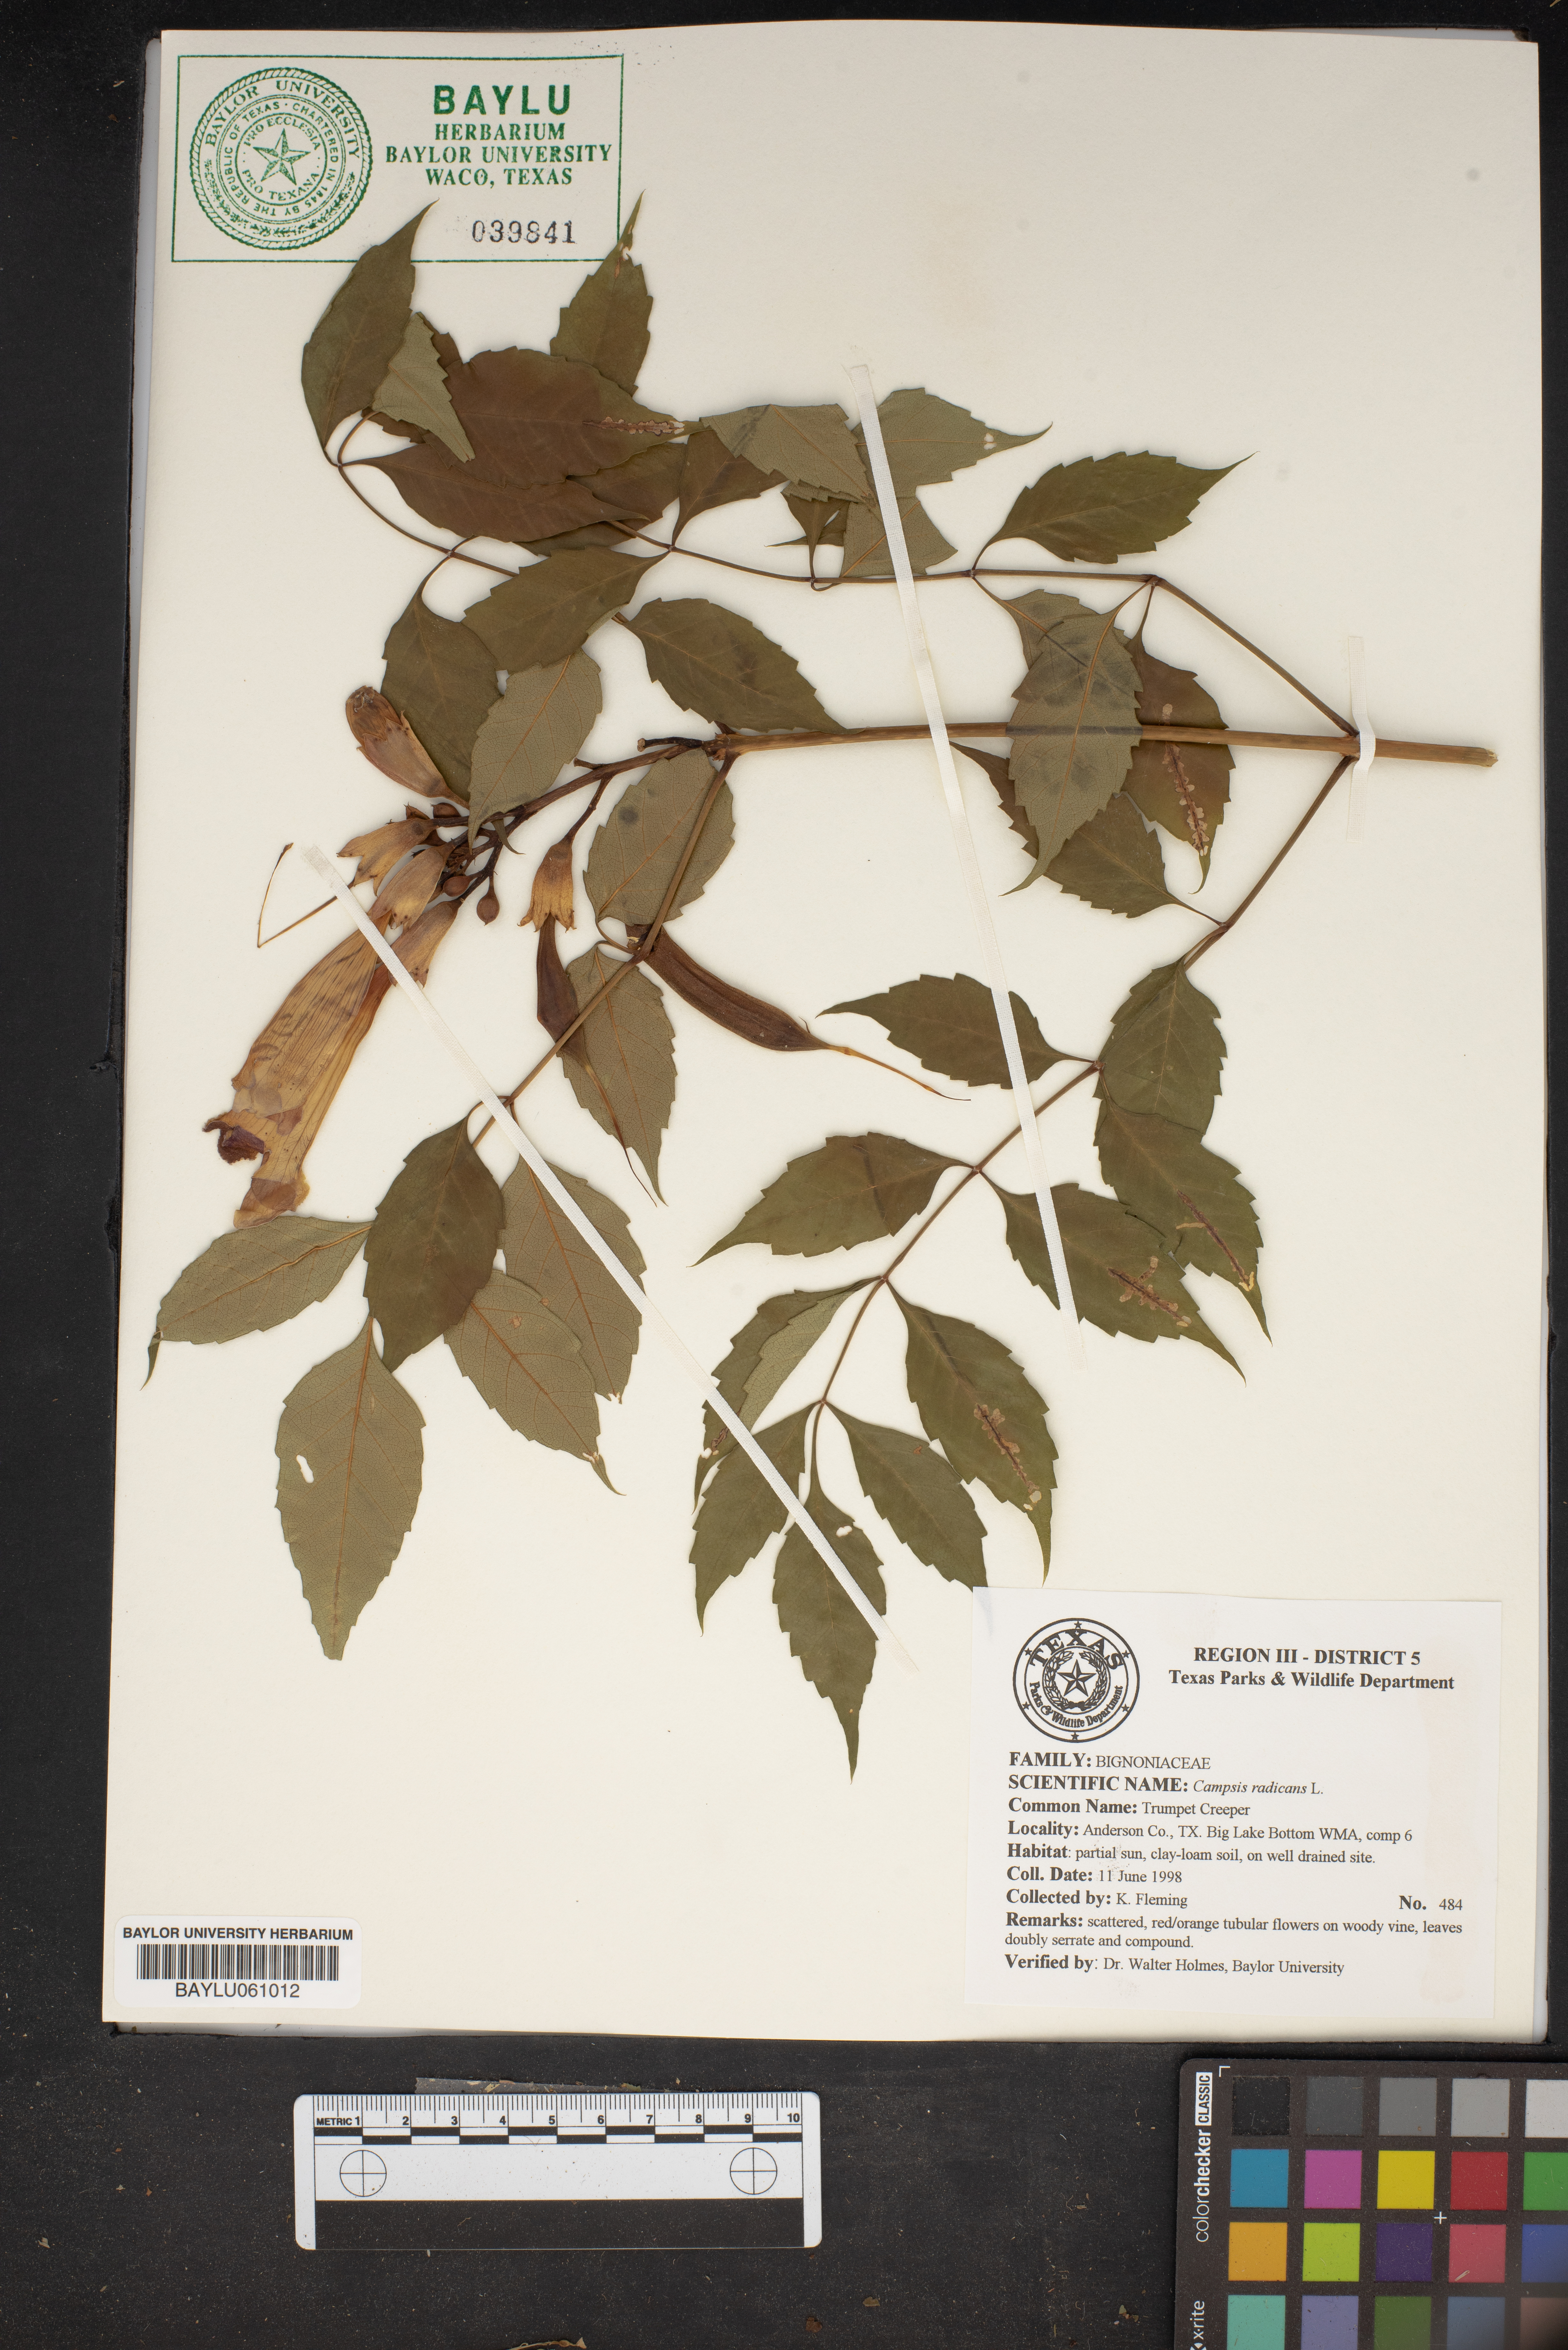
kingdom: Plantae
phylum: Tracheophyta
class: Magnoliopsida
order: Lamiales
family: Bignoniaceae
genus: Campsis
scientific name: Campsis radicans
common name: Trumpet-creeper
